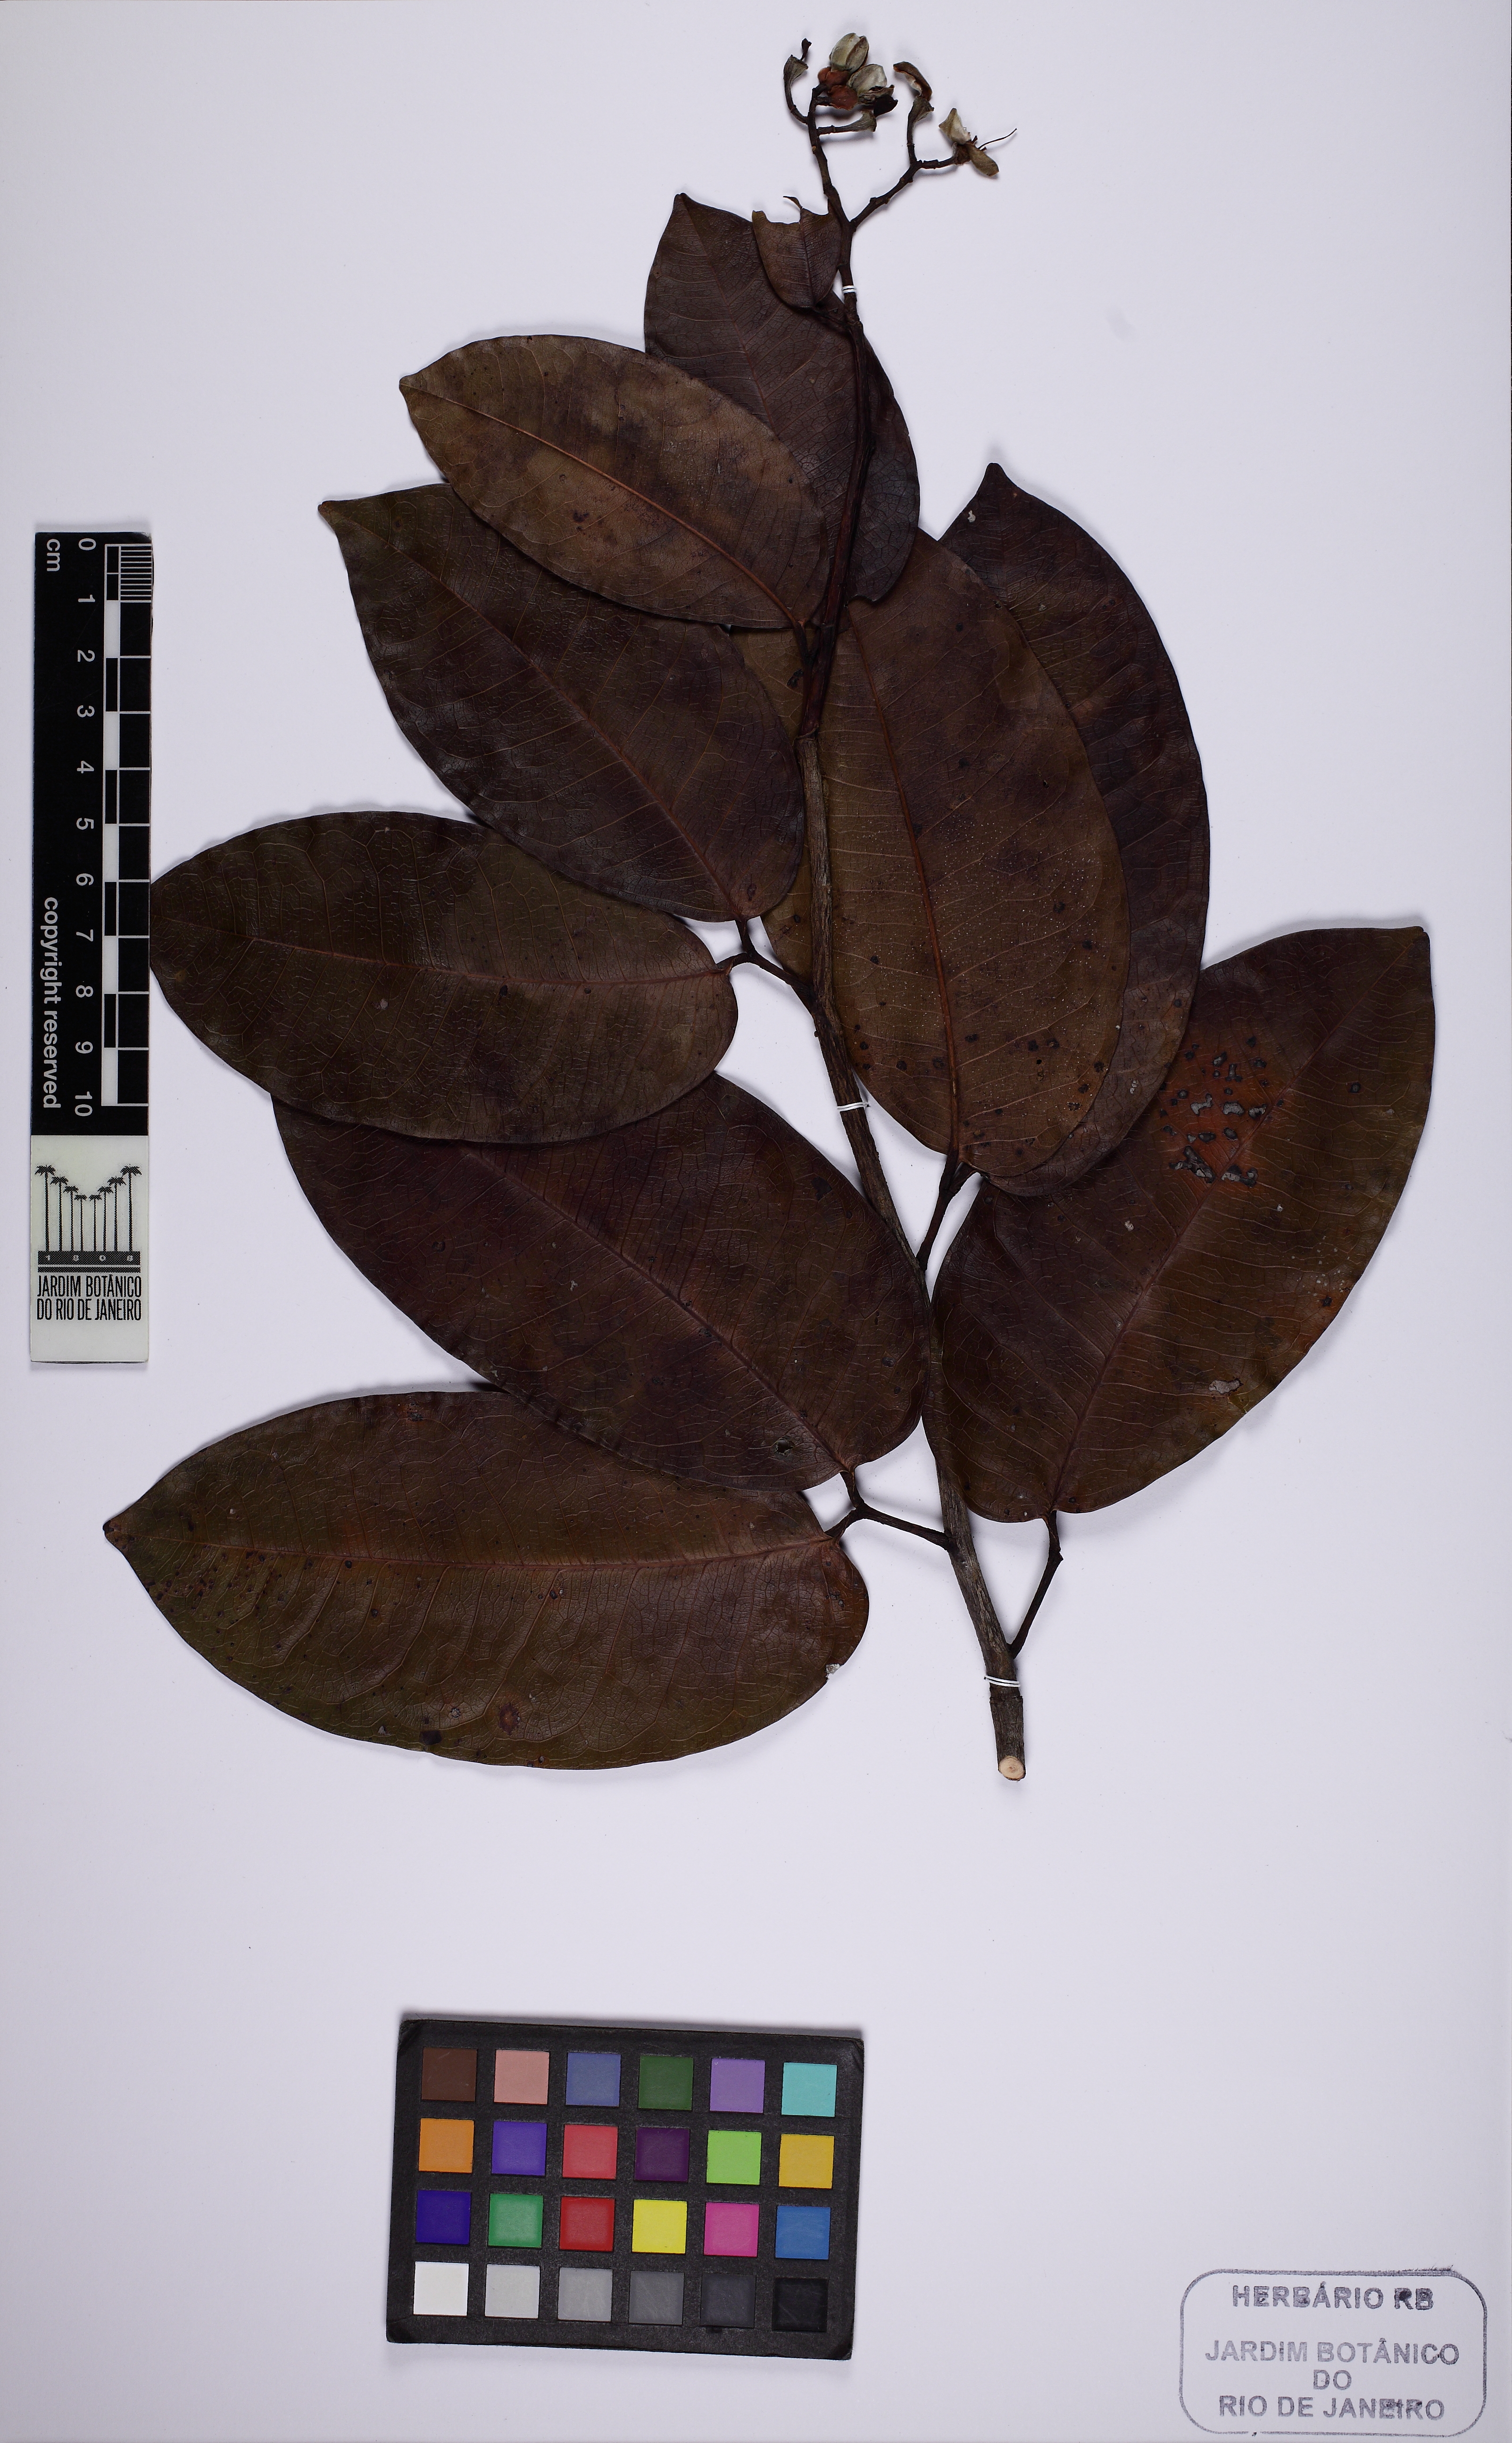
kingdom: Plantae
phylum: Tracheophyta
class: Magnoliopsida
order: Fabales
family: Fabaceae
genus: Peltogyne
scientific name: Peltogyne catingae
